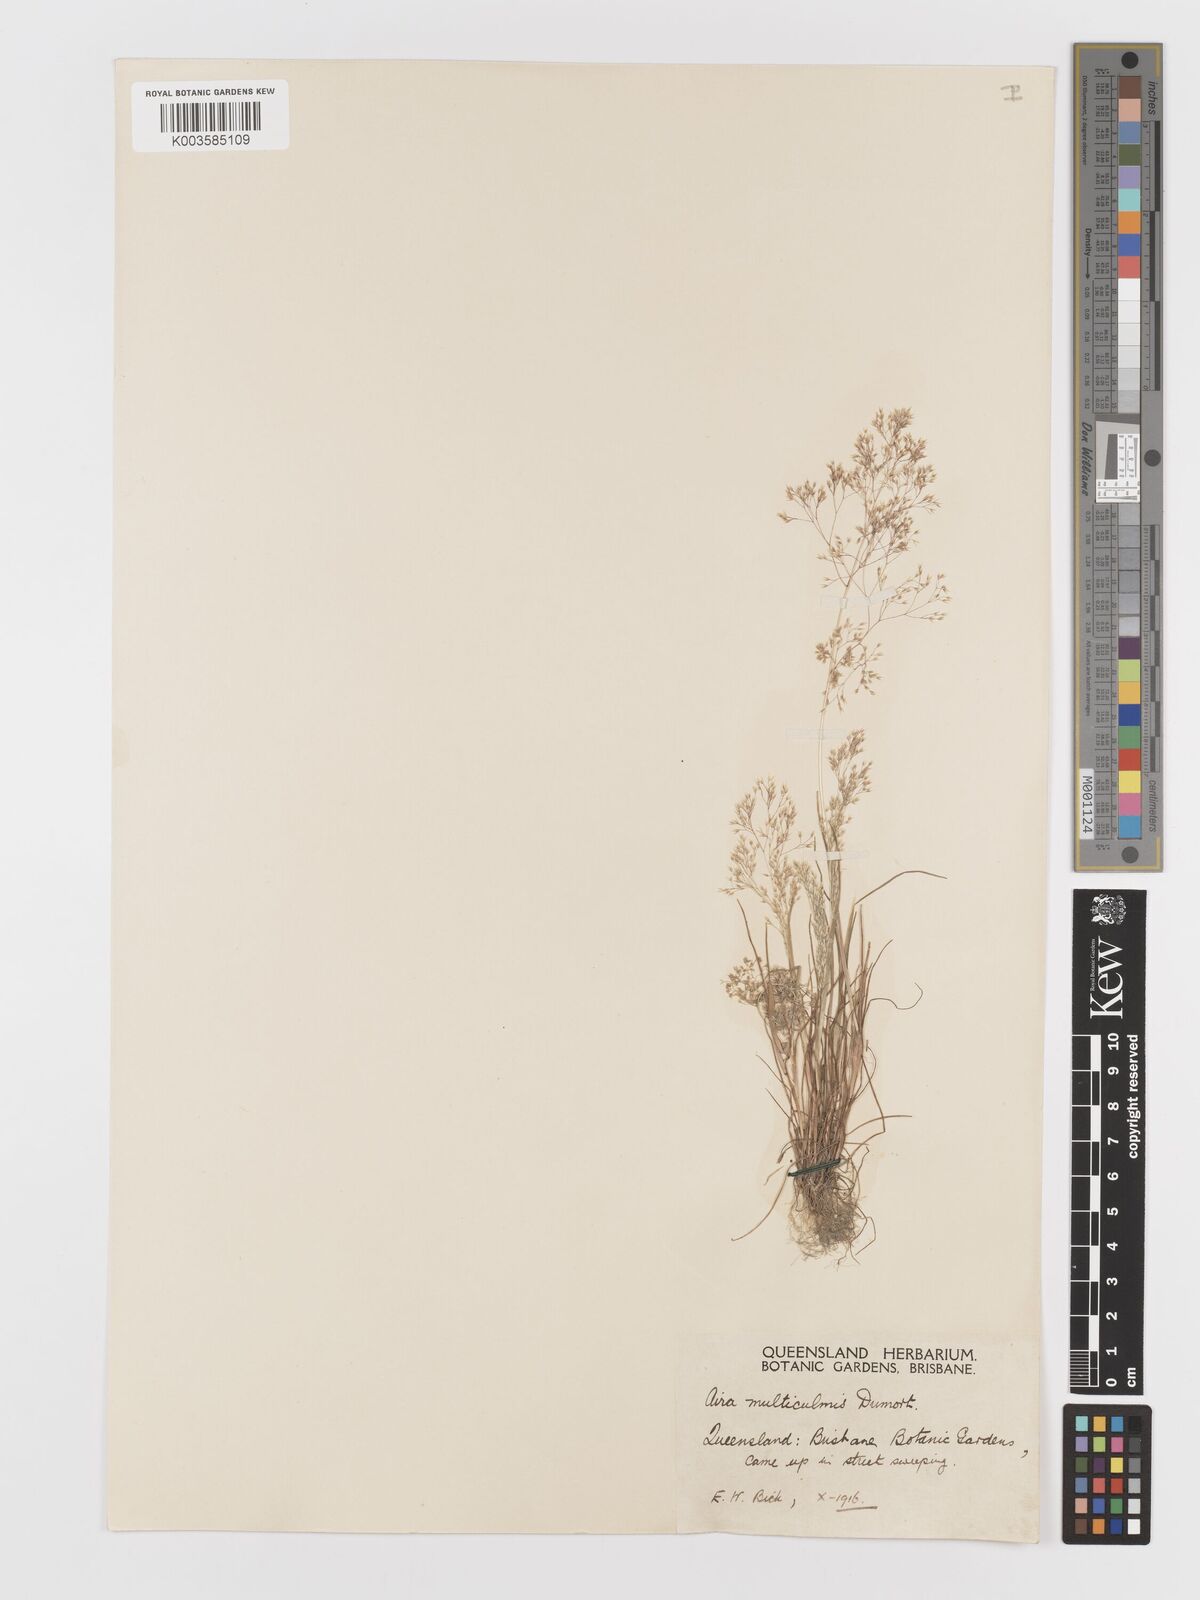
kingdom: Plantae
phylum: Tracheophyta
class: Liliopsida
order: Poales
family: Poaceae
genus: Aira
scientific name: Aira caryophyllea
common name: Silver hairgrass
